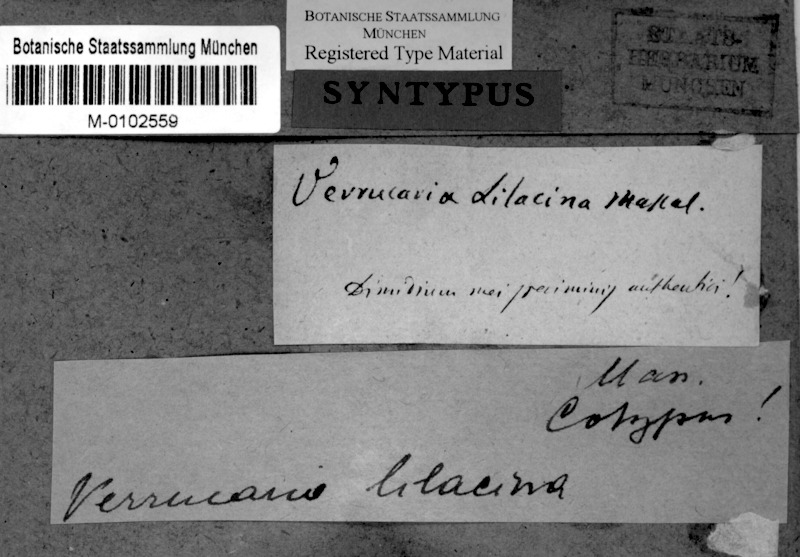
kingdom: Fungi
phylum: Ascomycota
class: Eurotiomycetes
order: Verrucariales
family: Verrucariaceae
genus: Verrucaria
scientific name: Verrucaria lilacina
